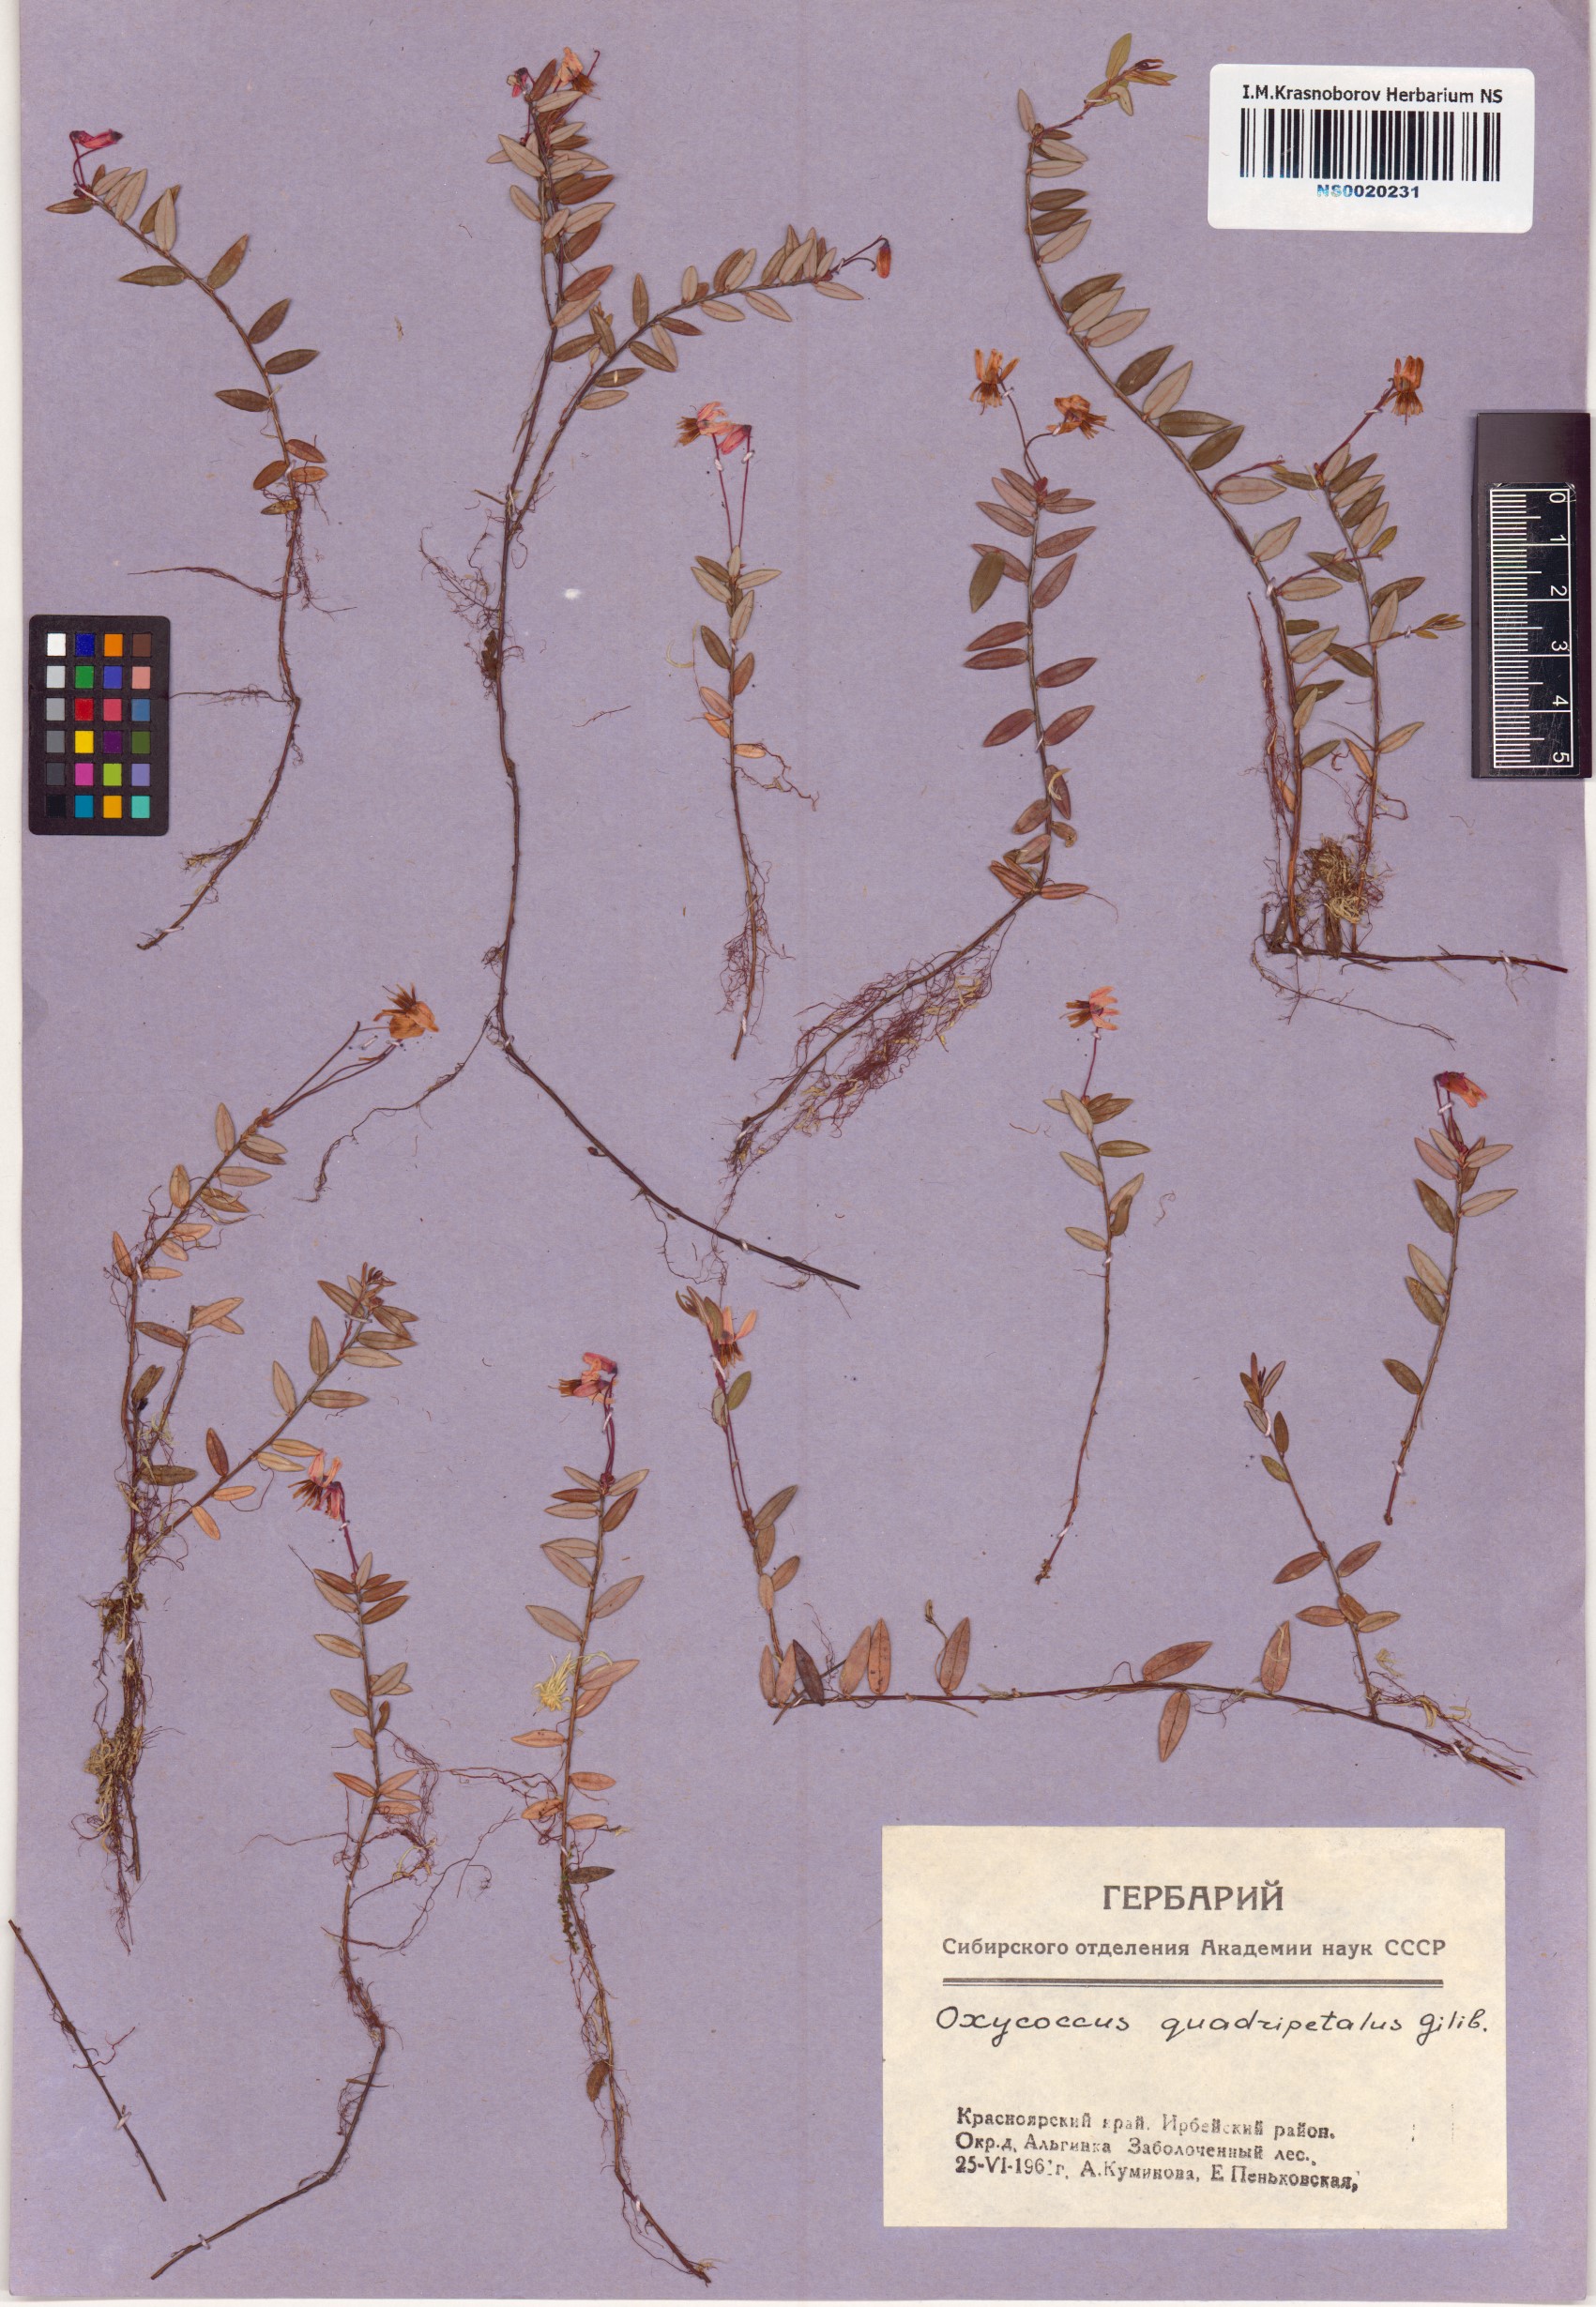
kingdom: Plantae
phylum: Tracheophyta
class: Magnoliopsida
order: Ericales
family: Ericaceae
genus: Vaccinium
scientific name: Vaccinium oxycoccos
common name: Cranberry
